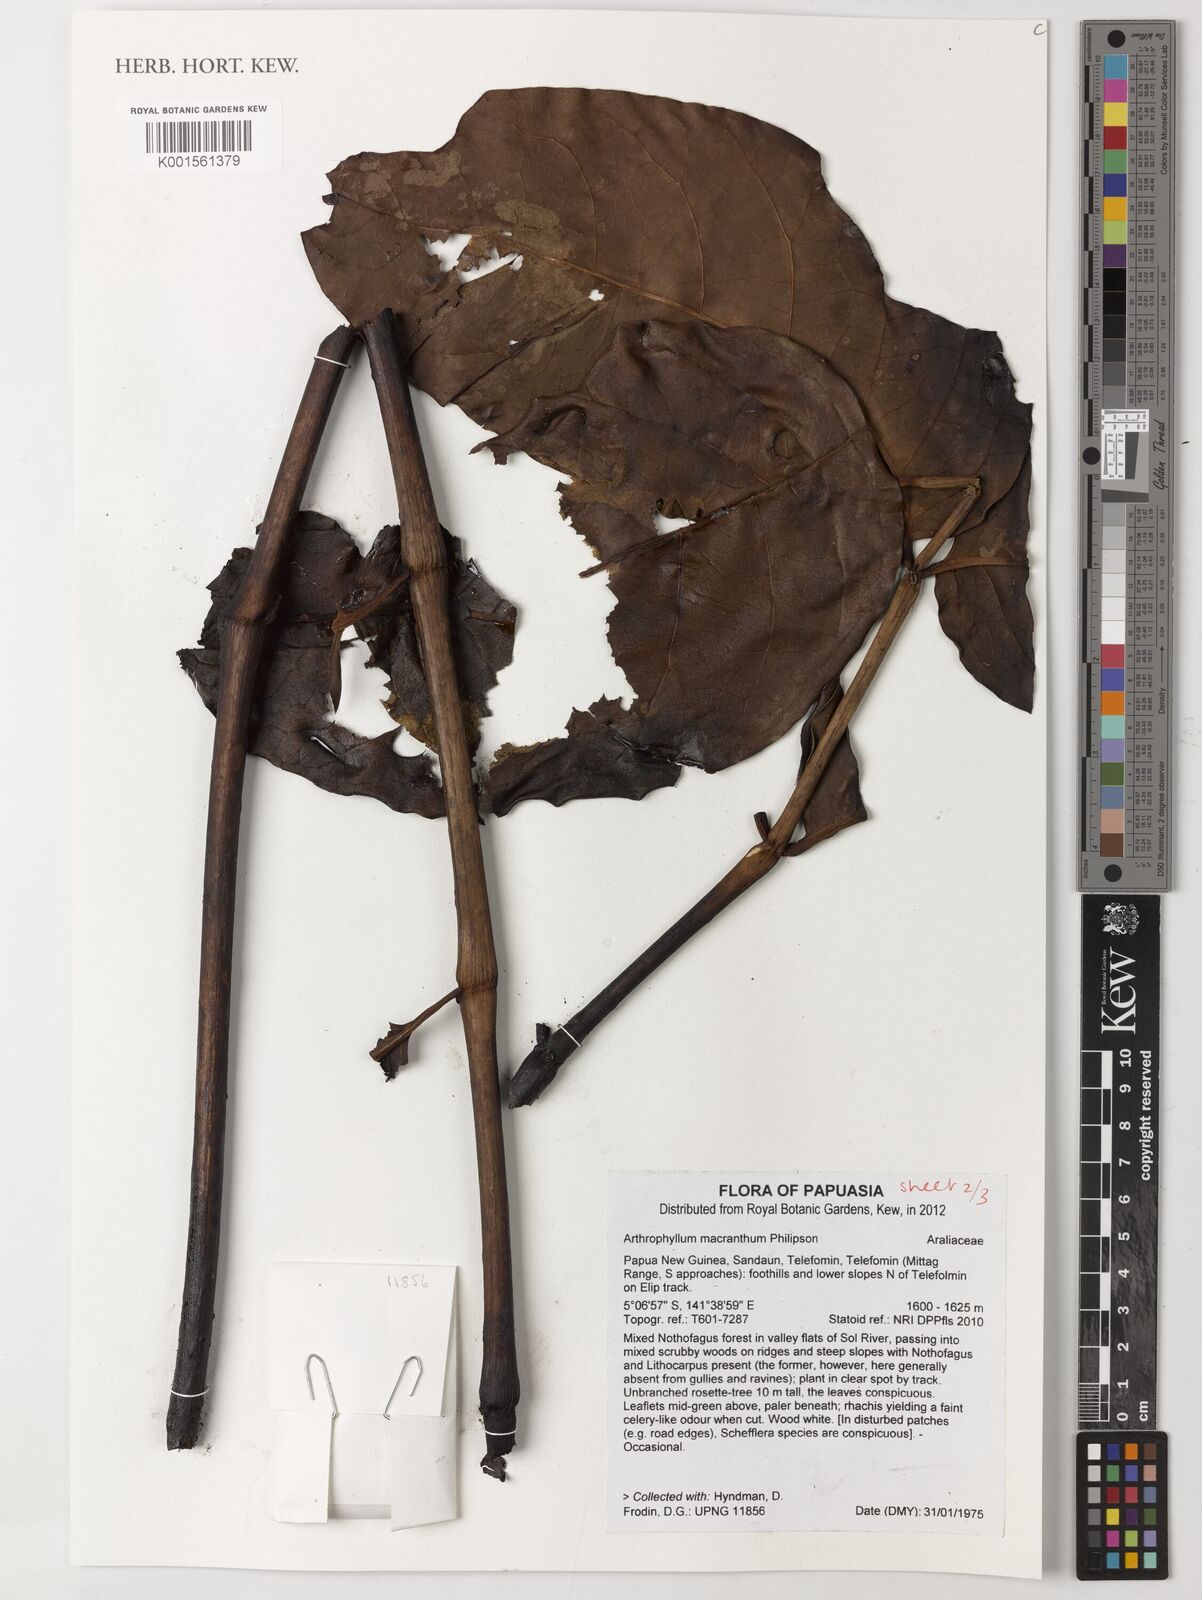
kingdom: Plantae
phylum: Tracheophyta
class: Magnoliopsida
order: Apiales
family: Araliaceae
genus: Polyscias
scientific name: Polyscias macranthum
